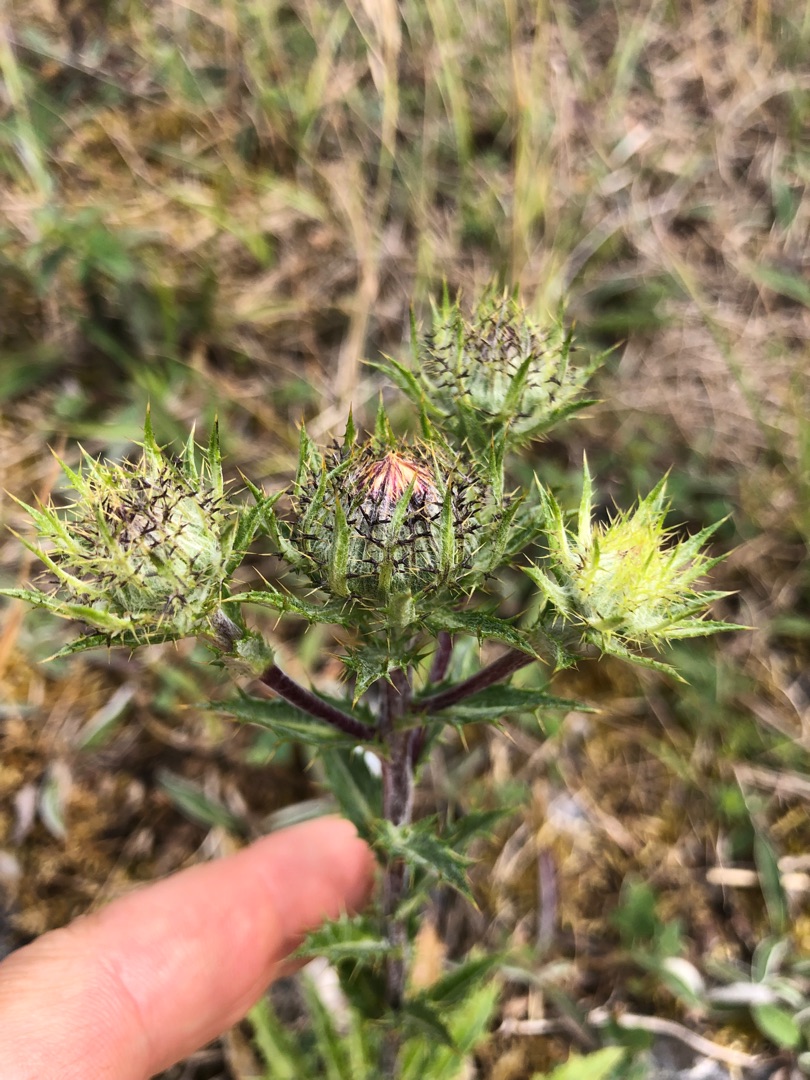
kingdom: Plantae
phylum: Tracheophyta
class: Magnoliopsida
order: Asterales
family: Asteraceae
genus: Carlina
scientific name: Carlina vulgaris
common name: Bakketidsel
